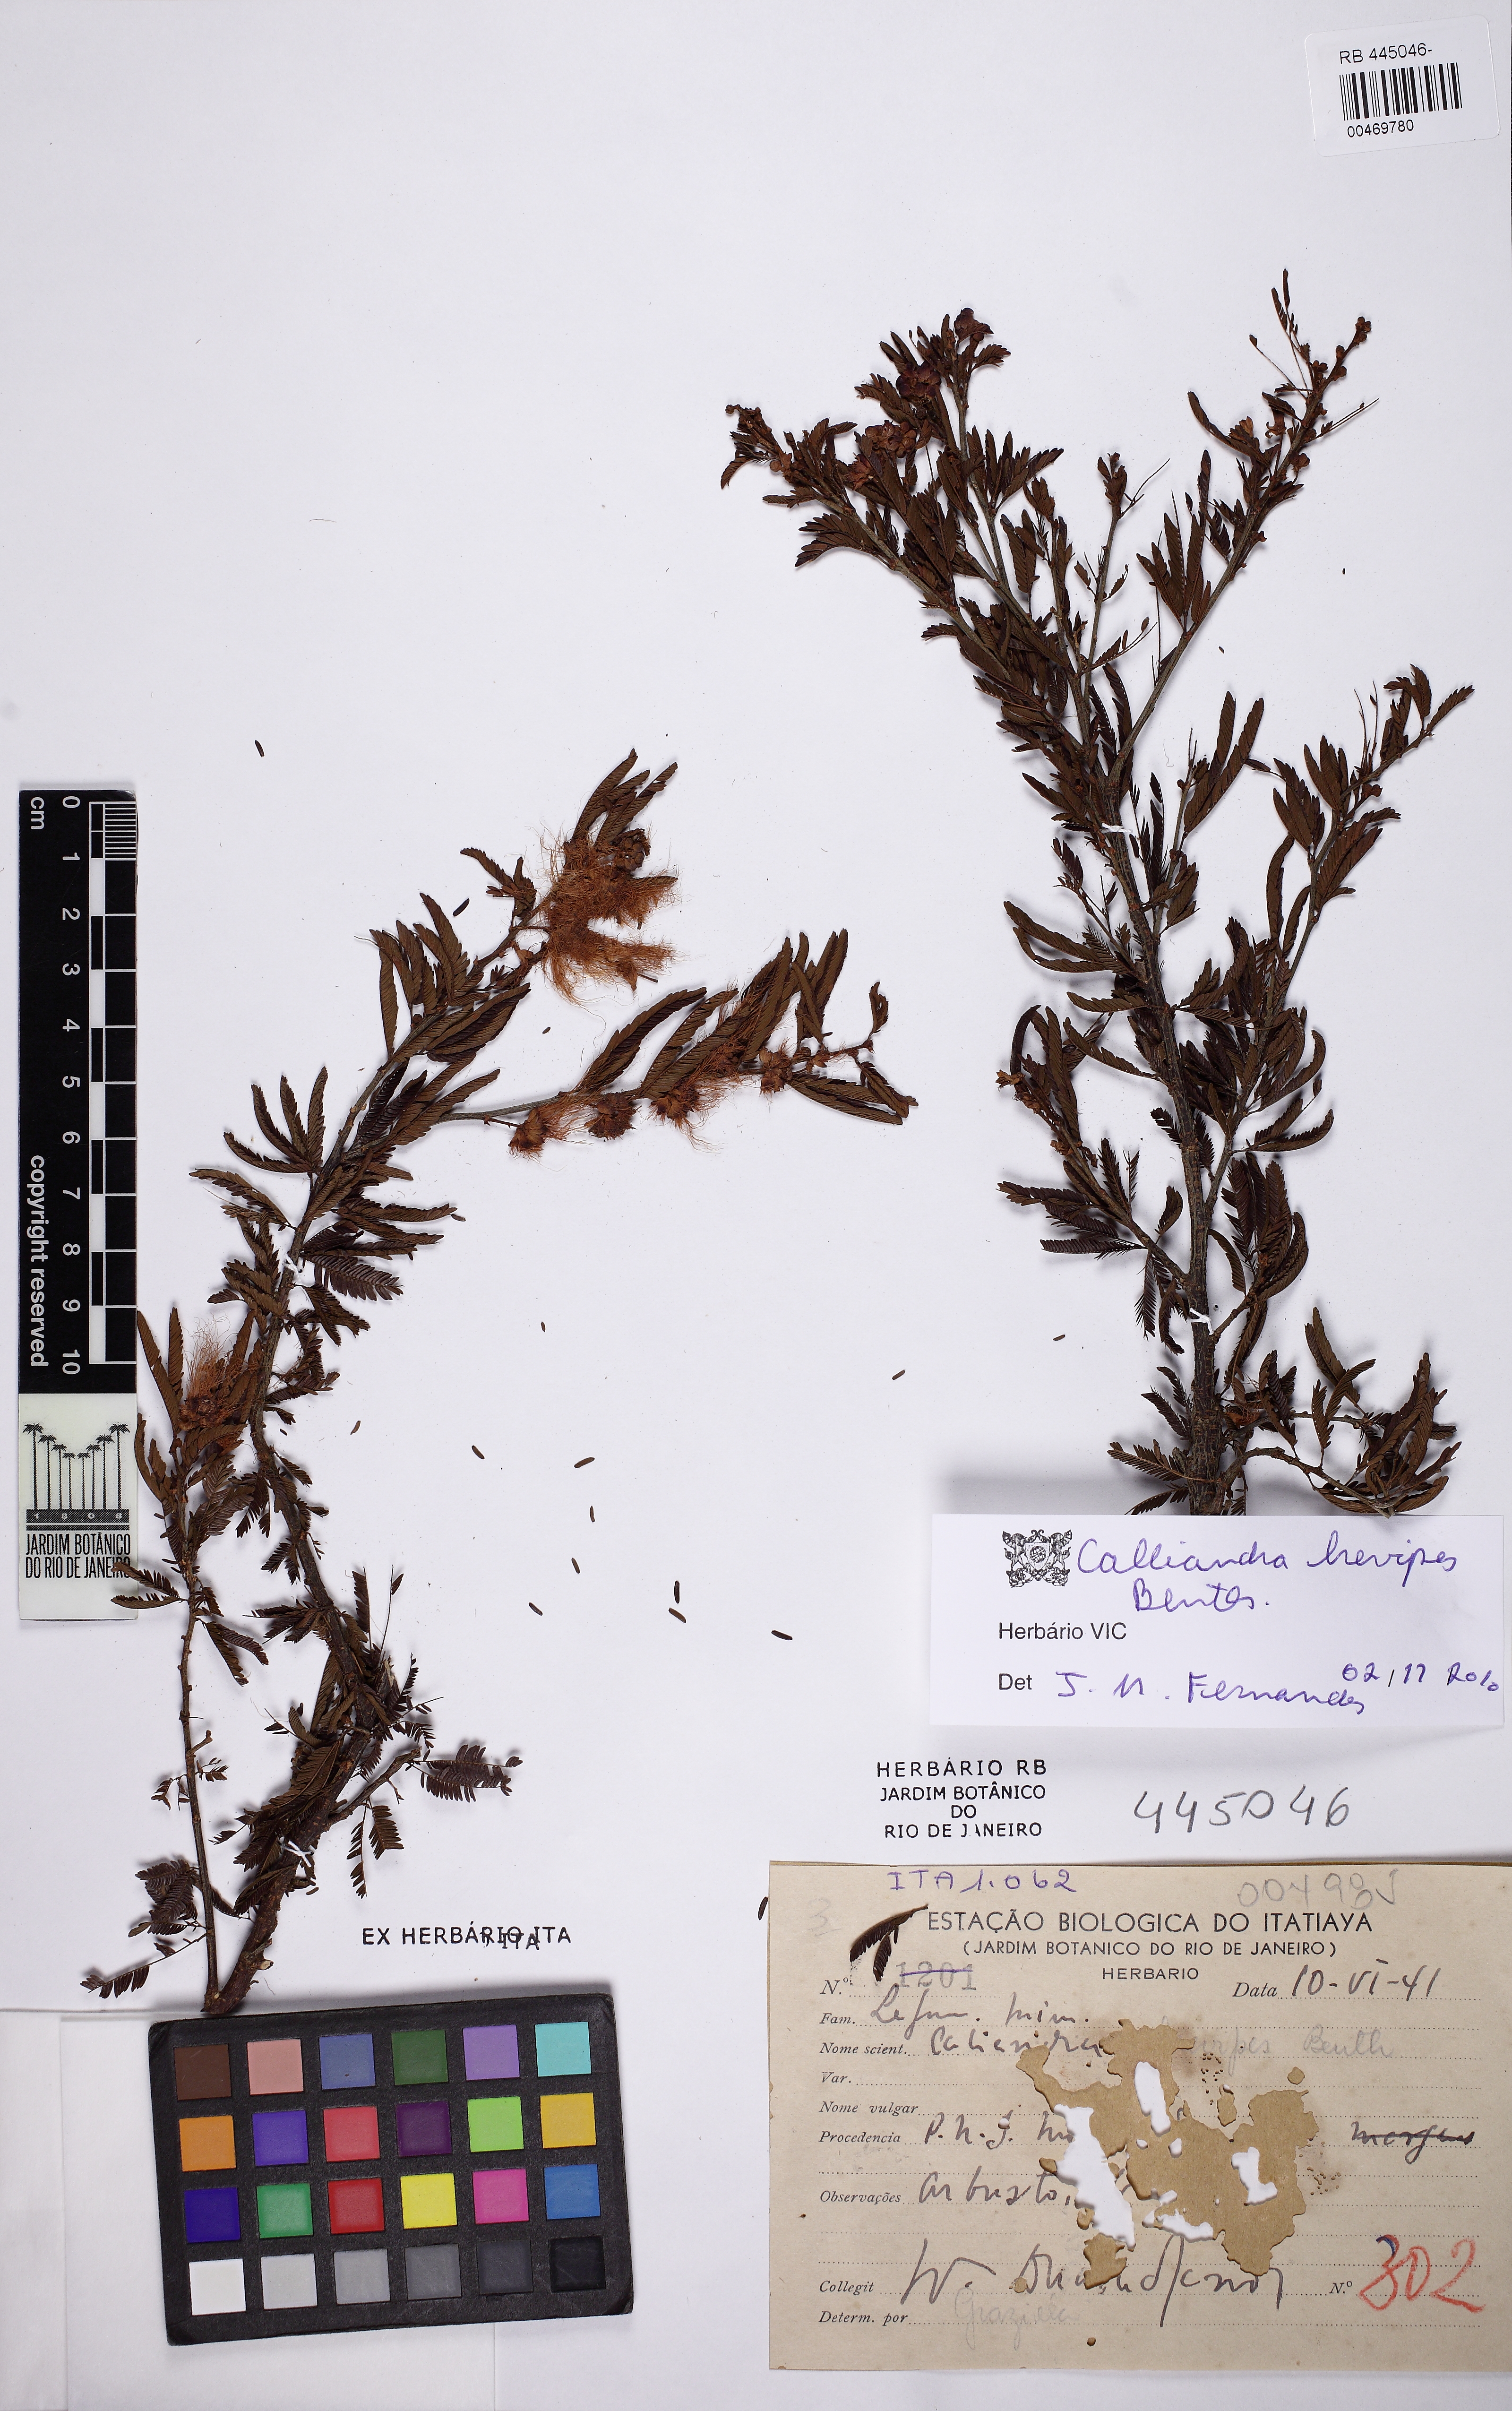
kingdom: Plantae
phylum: Tracheophyta
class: Magnoliopsida
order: Fabales
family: Fabaceae
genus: Calliandra
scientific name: Calliandra selloi
